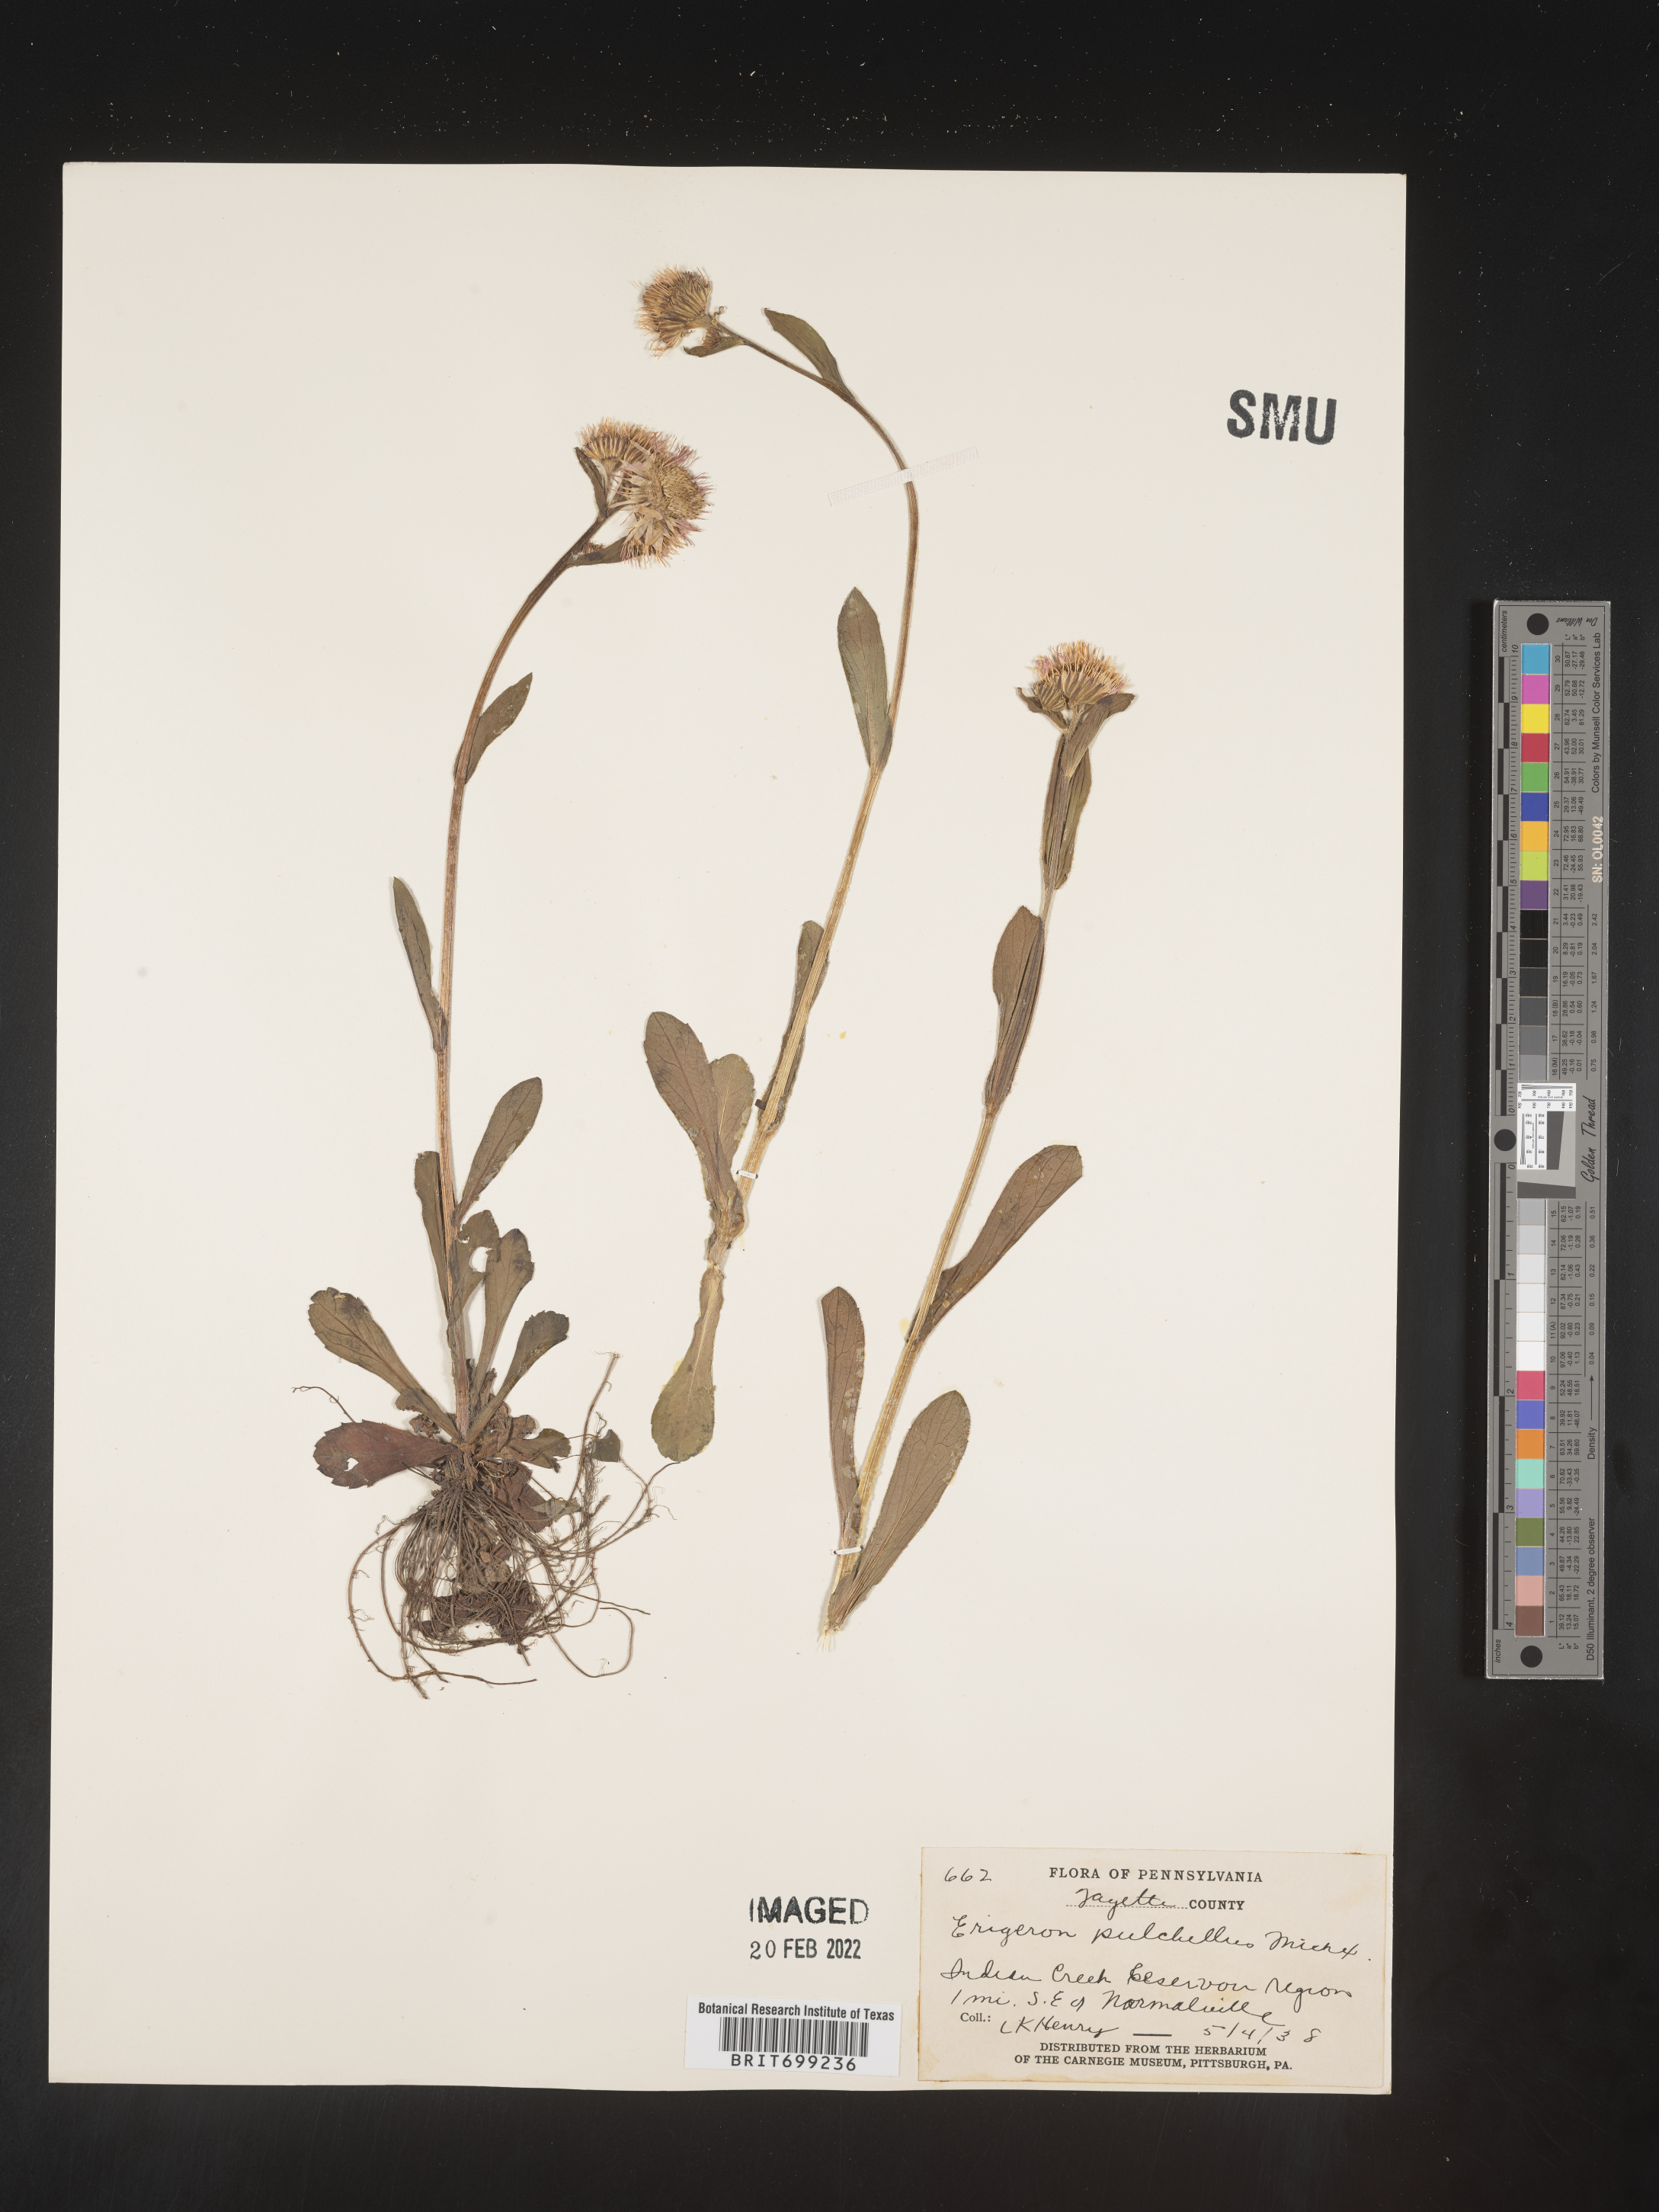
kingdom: Plantae
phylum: Tracheophyta
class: Magnoliopsida
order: Asterales
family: Asteraceae
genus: Erigeron
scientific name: Erigeron pulchellus
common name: Hairy fleabane
